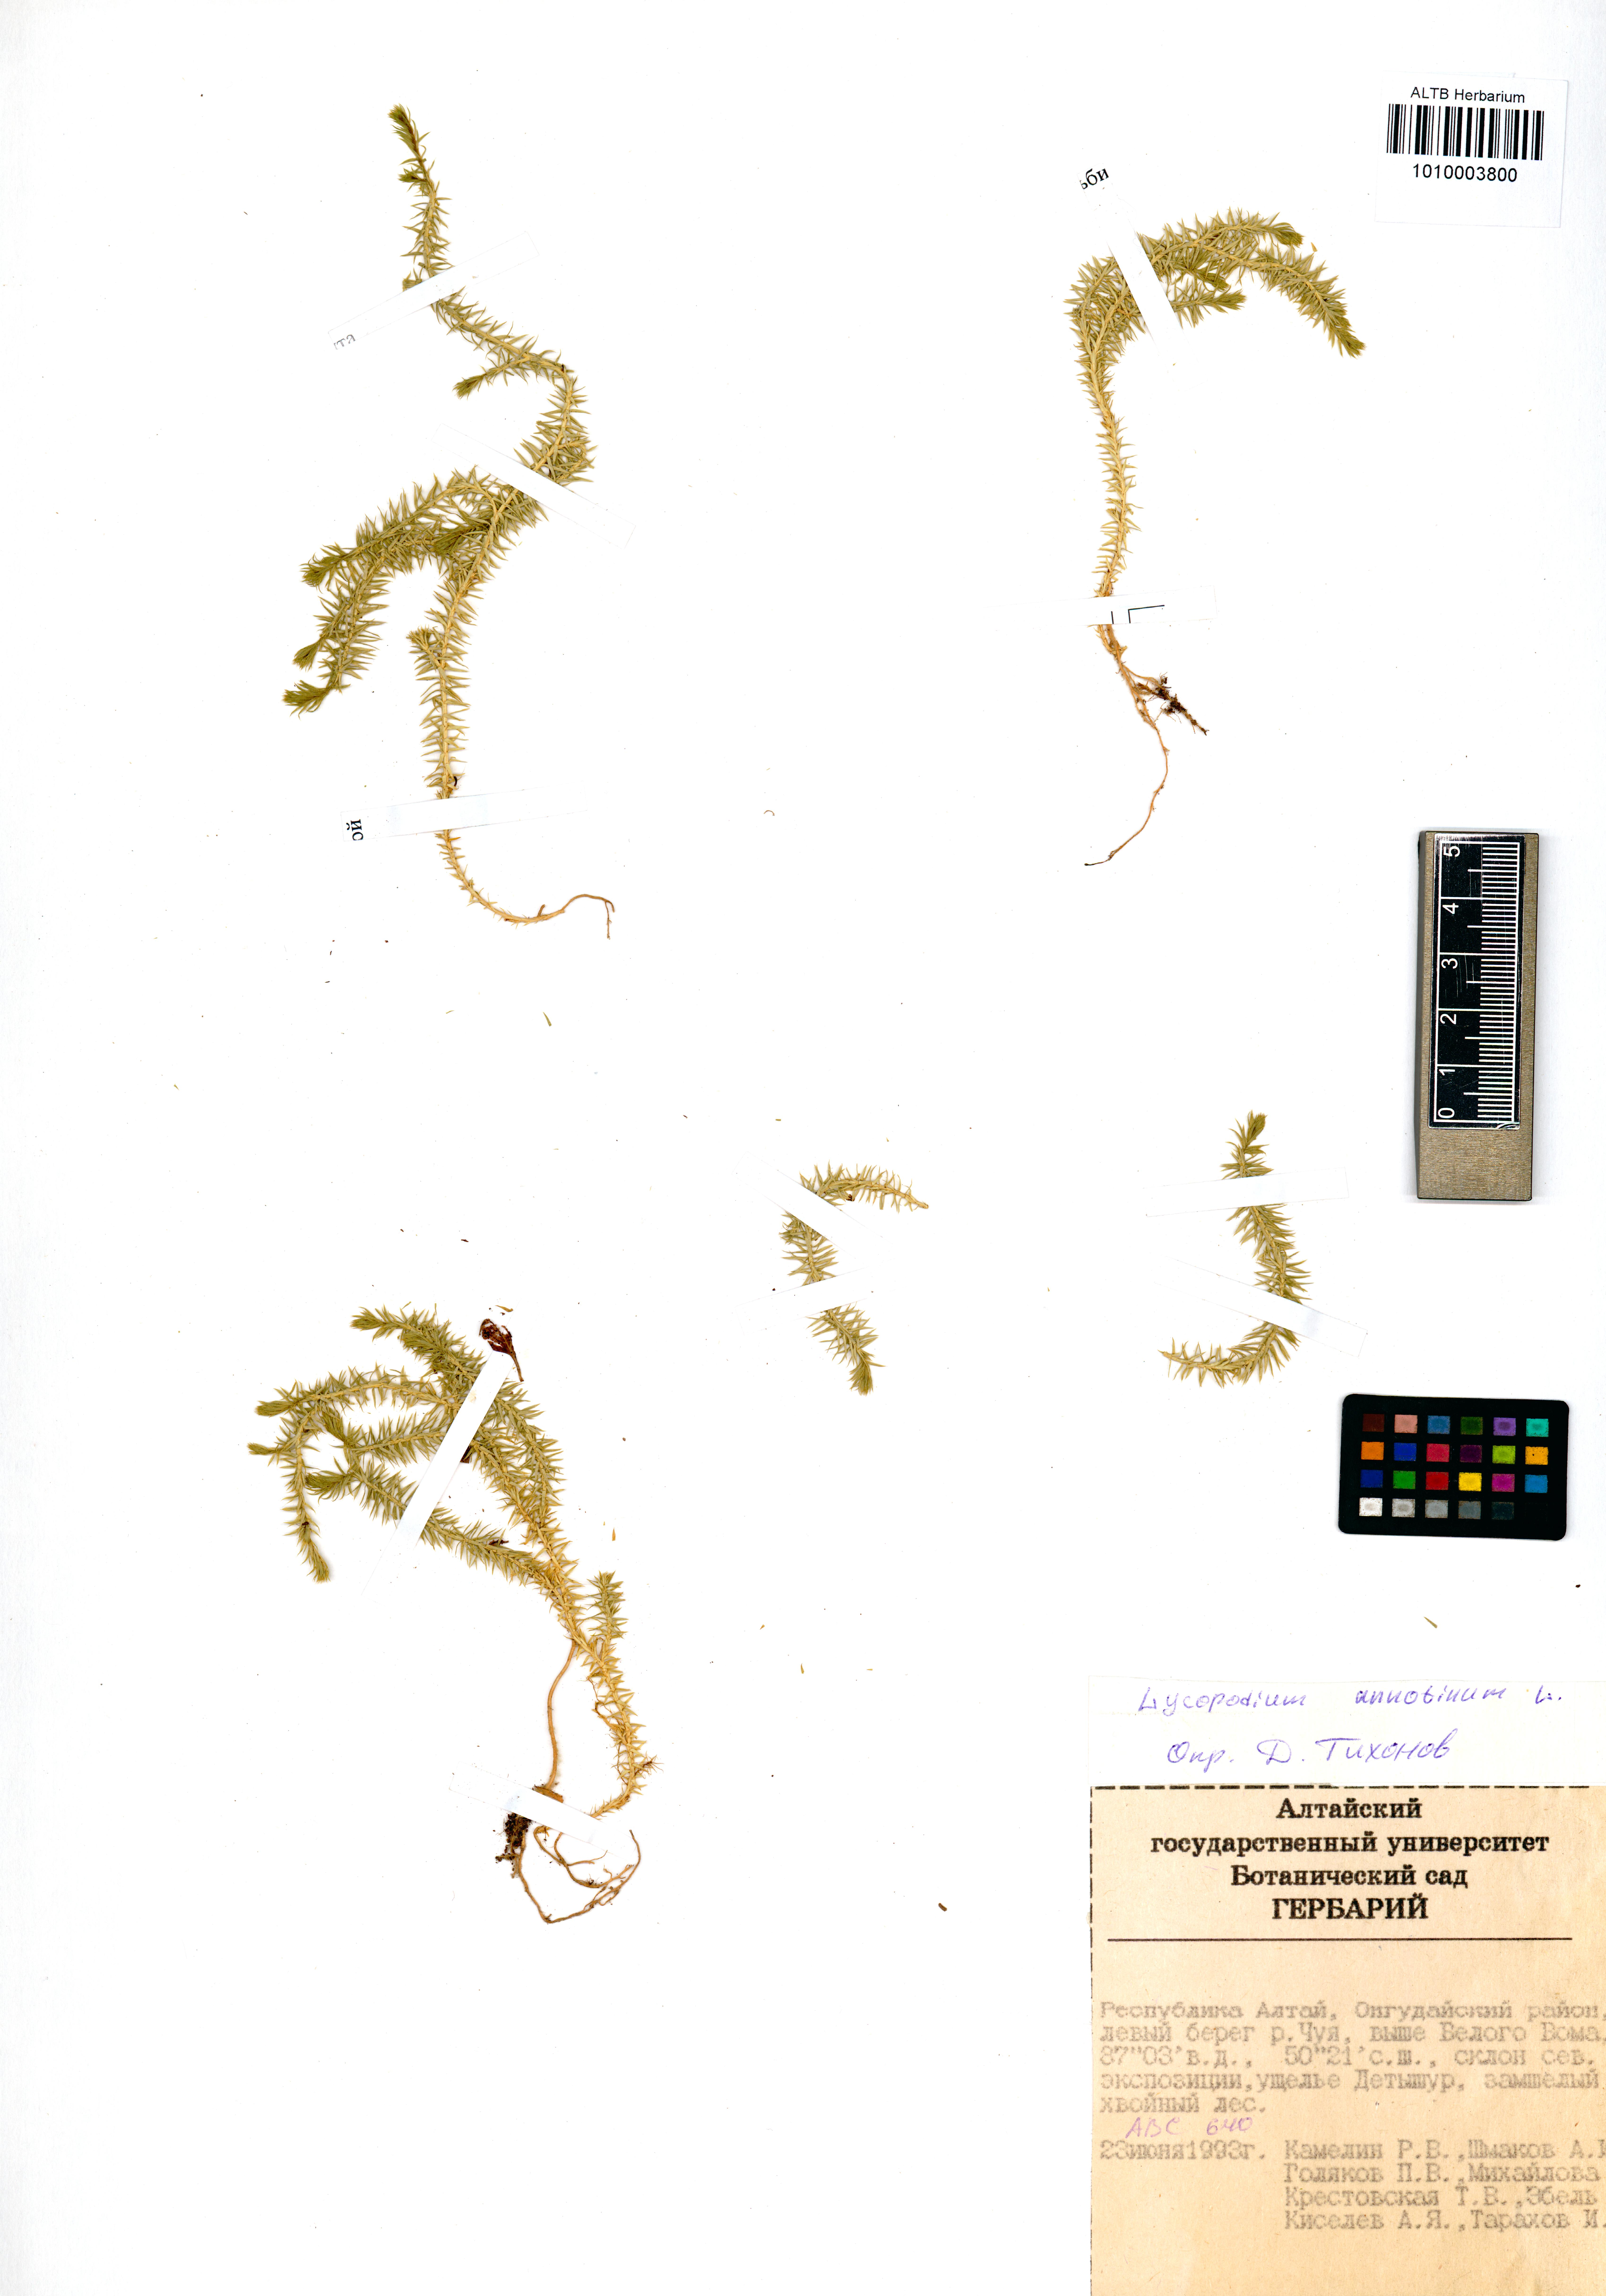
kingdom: Plantae
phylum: Tracheophyta
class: Lycopodiopsida
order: Lycopodiales
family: Lycopodiaceae
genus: Spinulum
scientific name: Spinulum annotinum
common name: Interrupted club-moss
